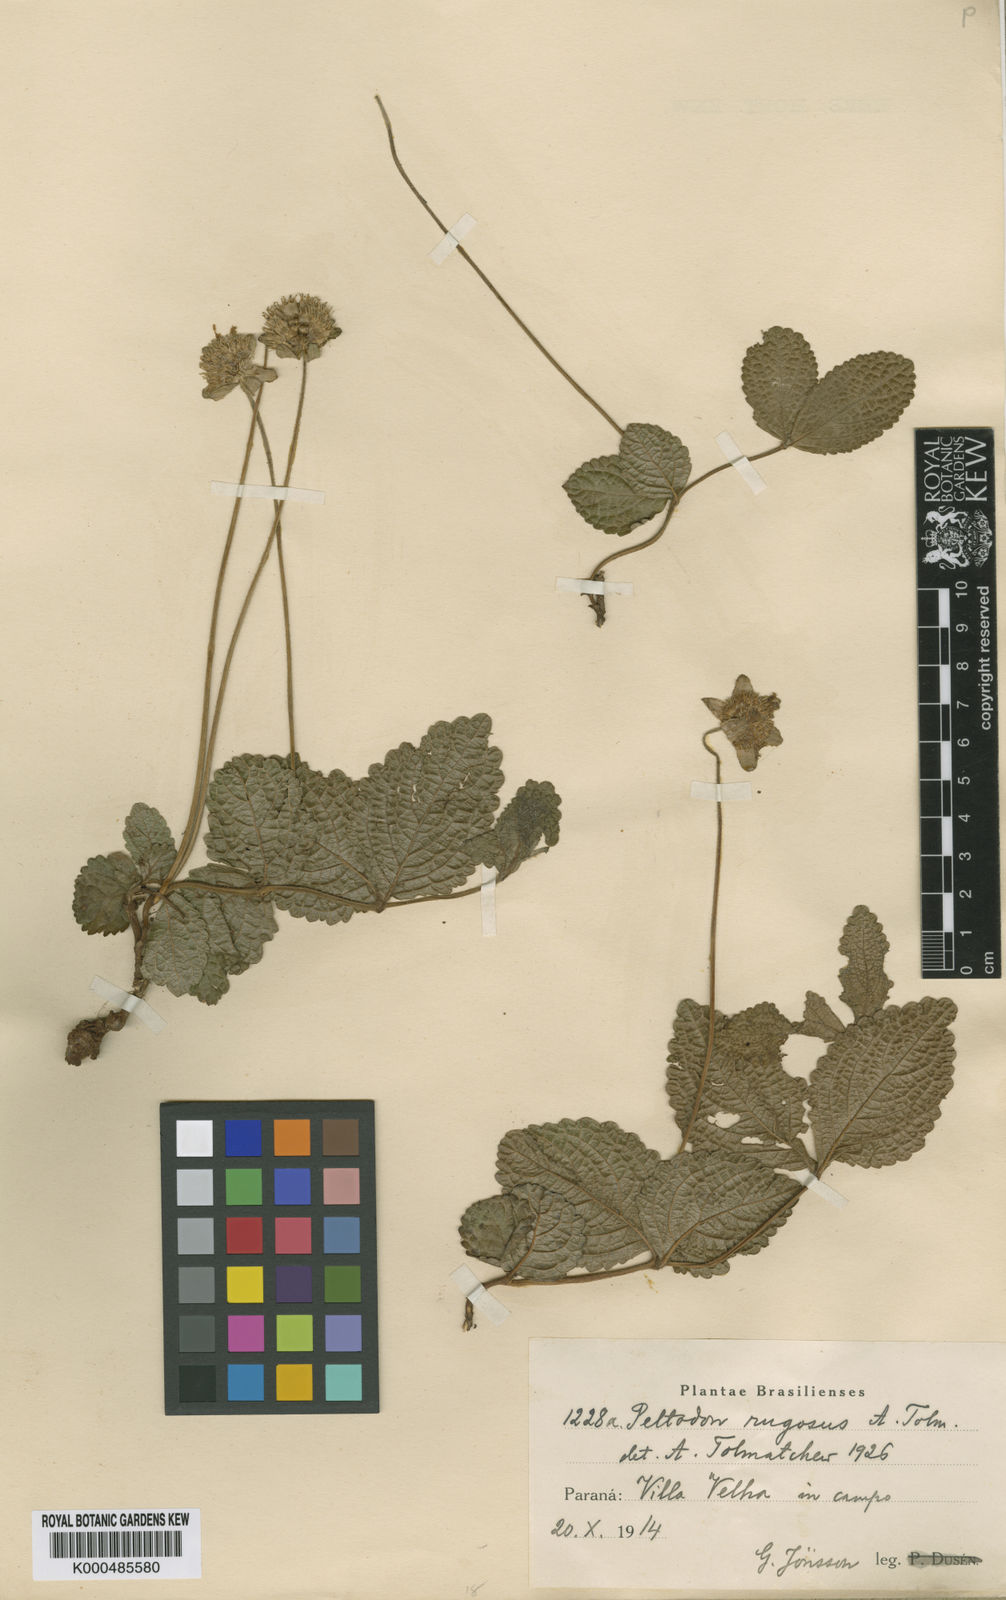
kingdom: Plantae
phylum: Tracheophyta
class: Magnoliopsida
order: Lamiales
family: Lamiaceae
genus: Hyptis
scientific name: Hyptis meridionalis
